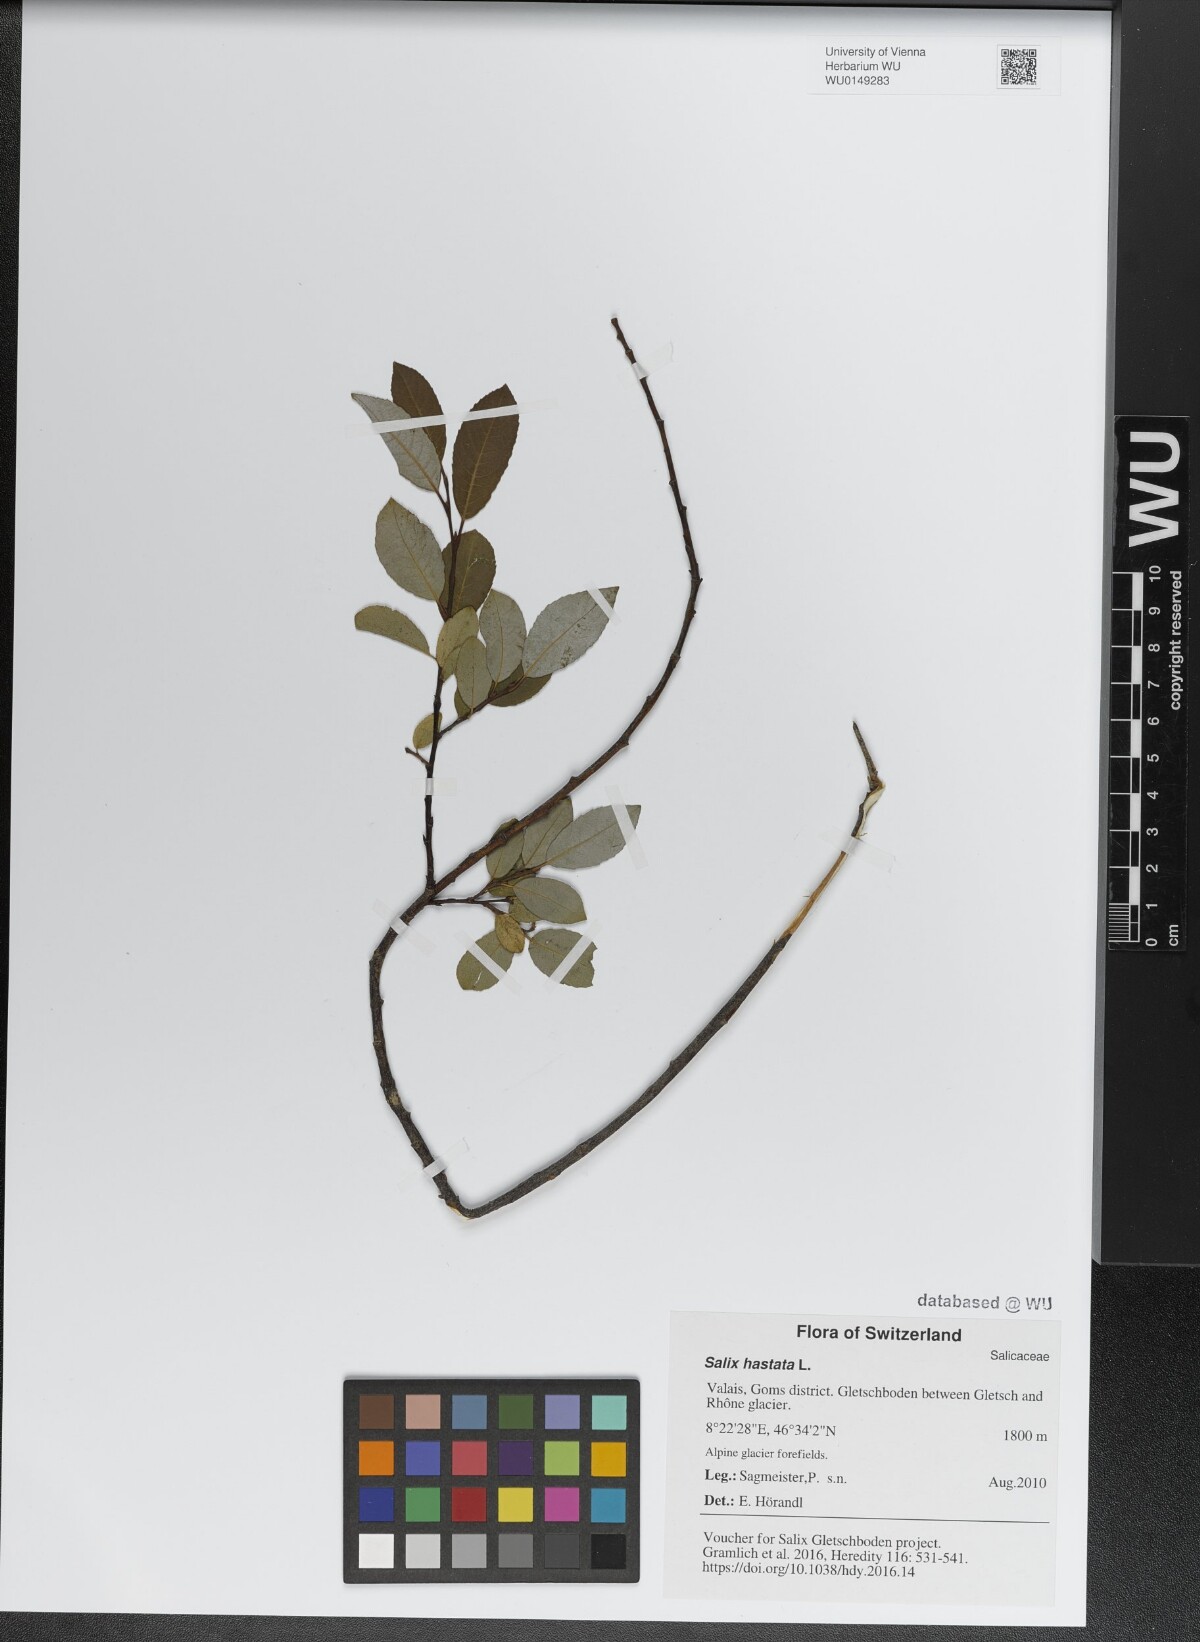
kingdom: Plantae
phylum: Tracheophyta
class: Magnoliopsida
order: Malpighiales
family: Salicaceae
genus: Salix
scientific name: Salix hastata
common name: Halberd willow
